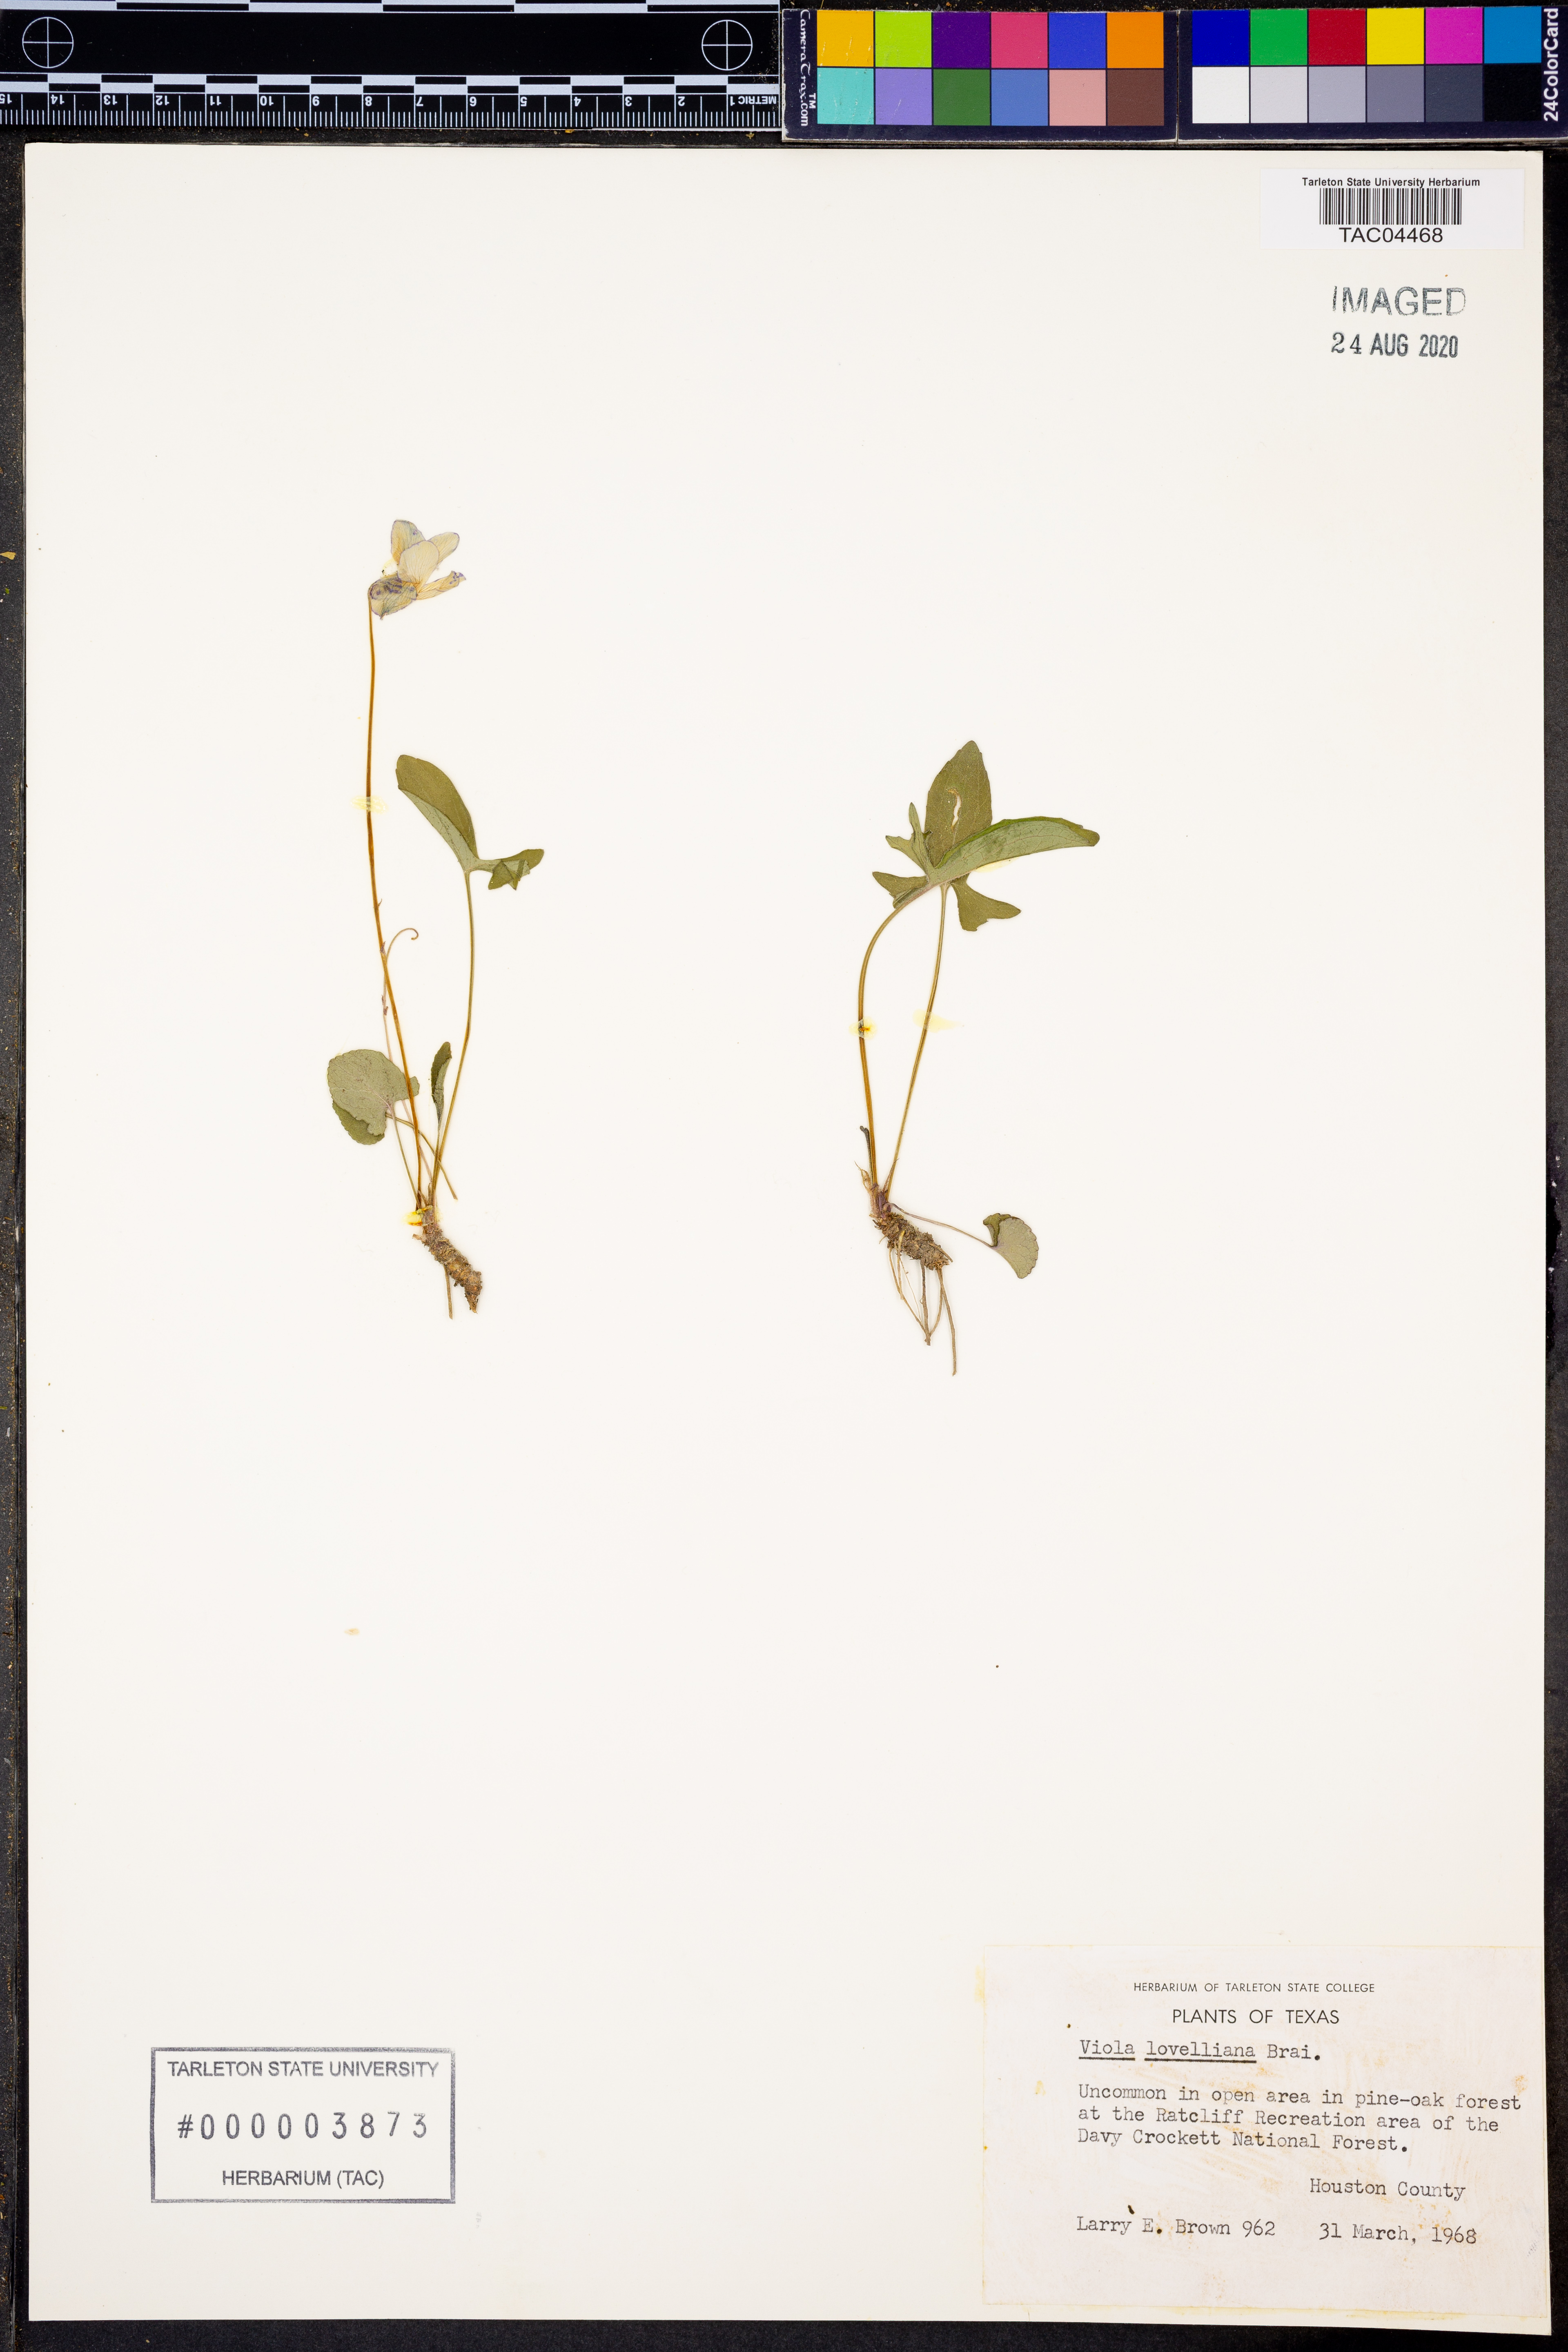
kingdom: Plantae
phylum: Tracheophyta
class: Magnoliopsida
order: Malpighiales
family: Violaceae
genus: Viola
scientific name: Viola lovelliana
